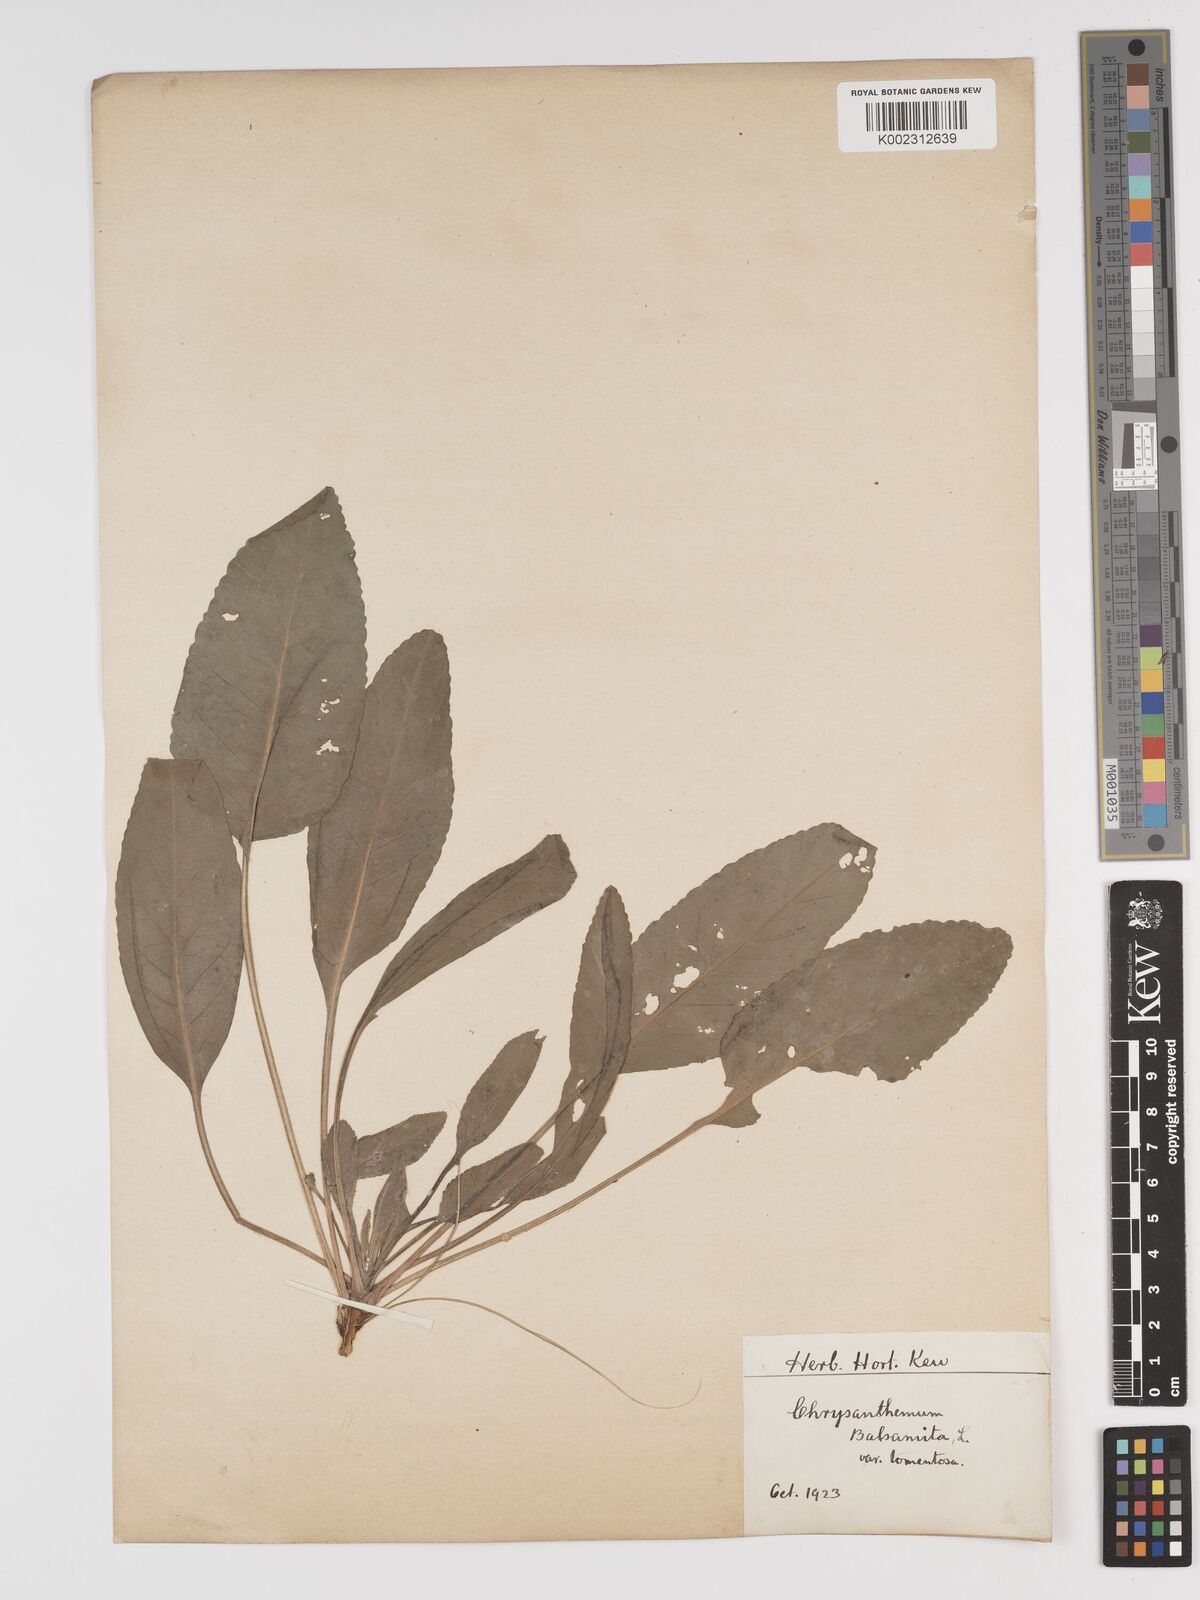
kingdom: Plantae
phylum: Tracheophyta
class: Magnoliopsida
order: Asterales
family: Asteraceae
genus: Tanacetum
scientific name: Tanacetum balsamita
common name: Costmary
